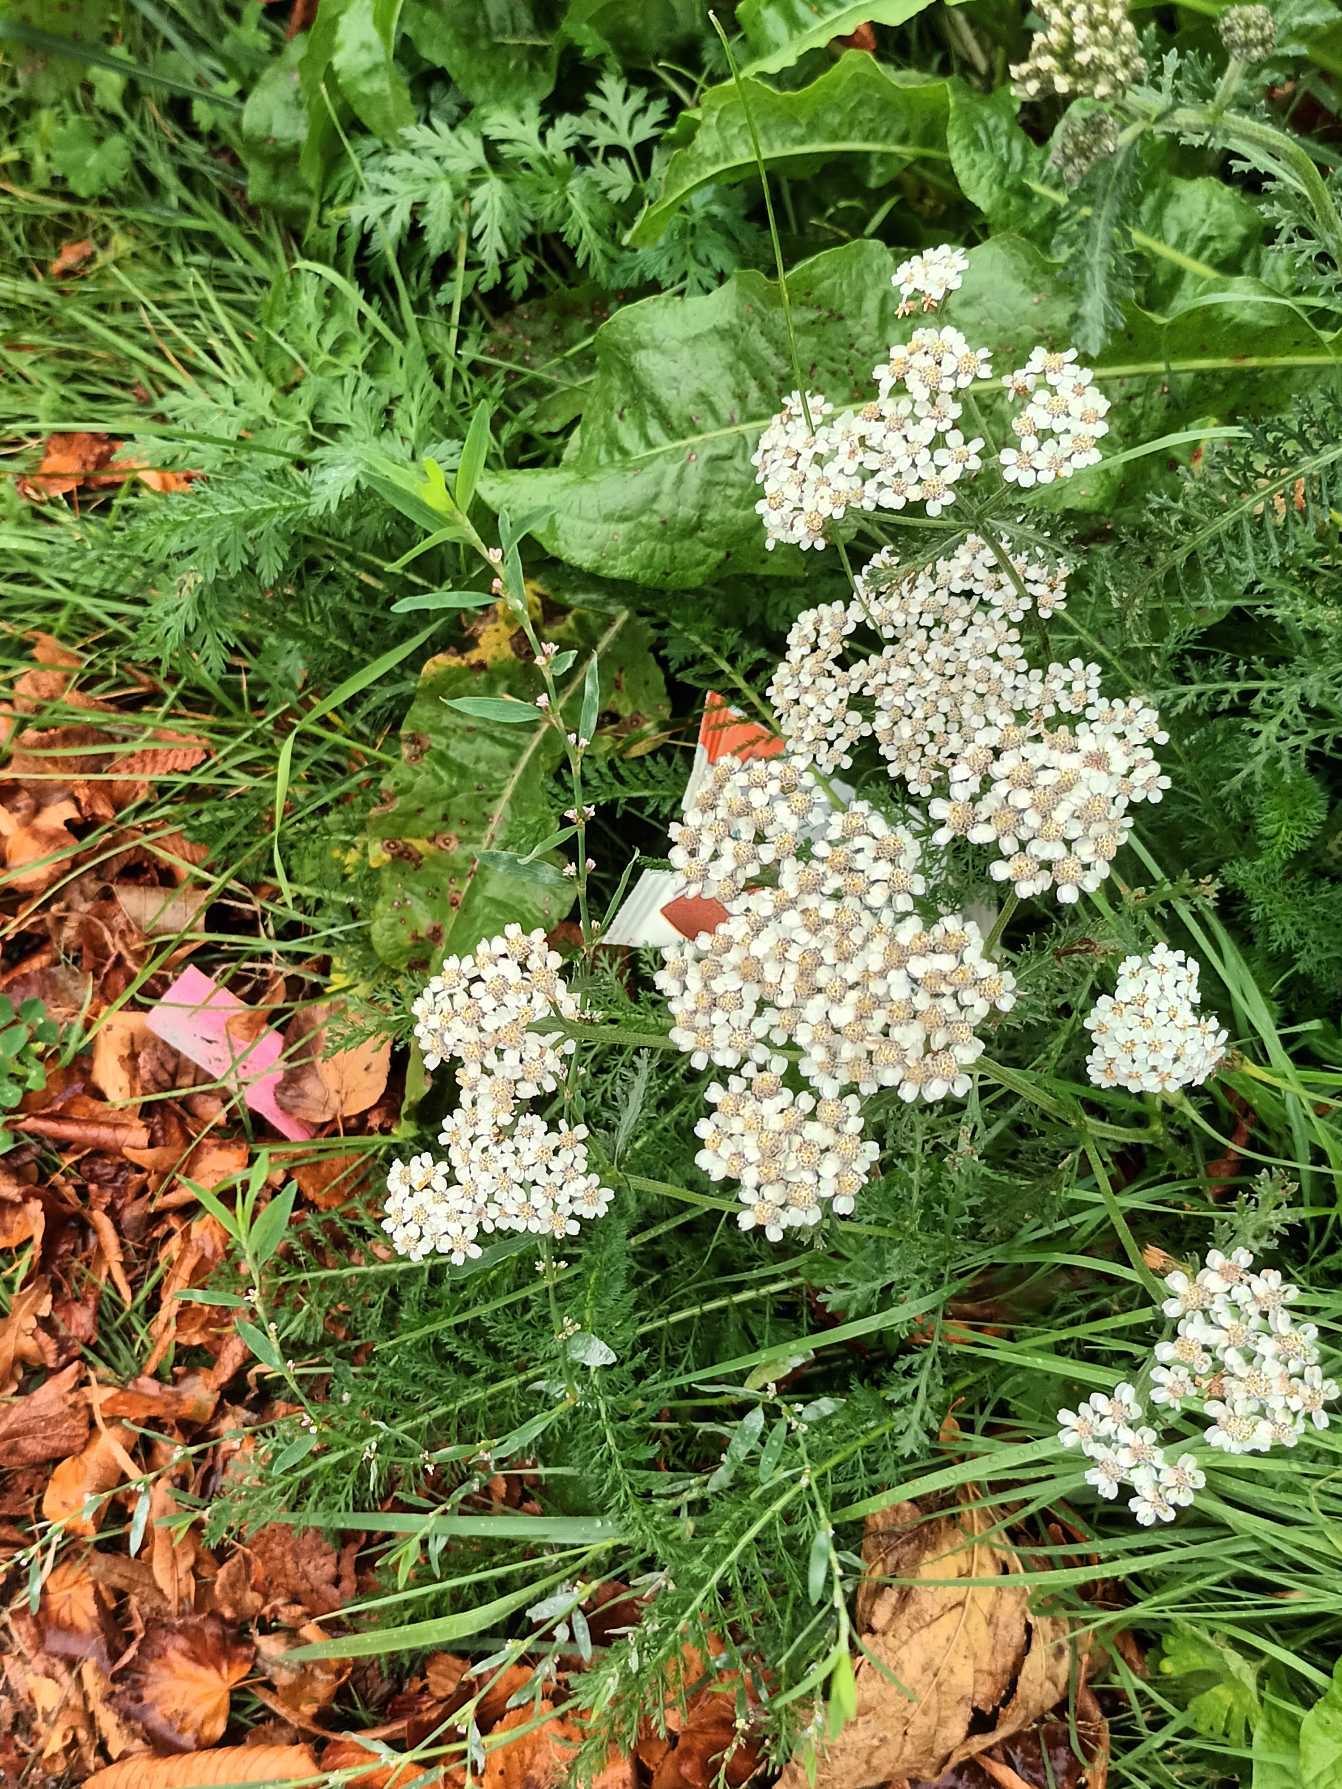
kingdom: Plantae
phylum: Tracheophyta
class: Magnoliopsida
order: Asterales
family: Asteraceae
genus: Achillea
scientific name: Achillea millefolium
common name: Almindelig røllike
